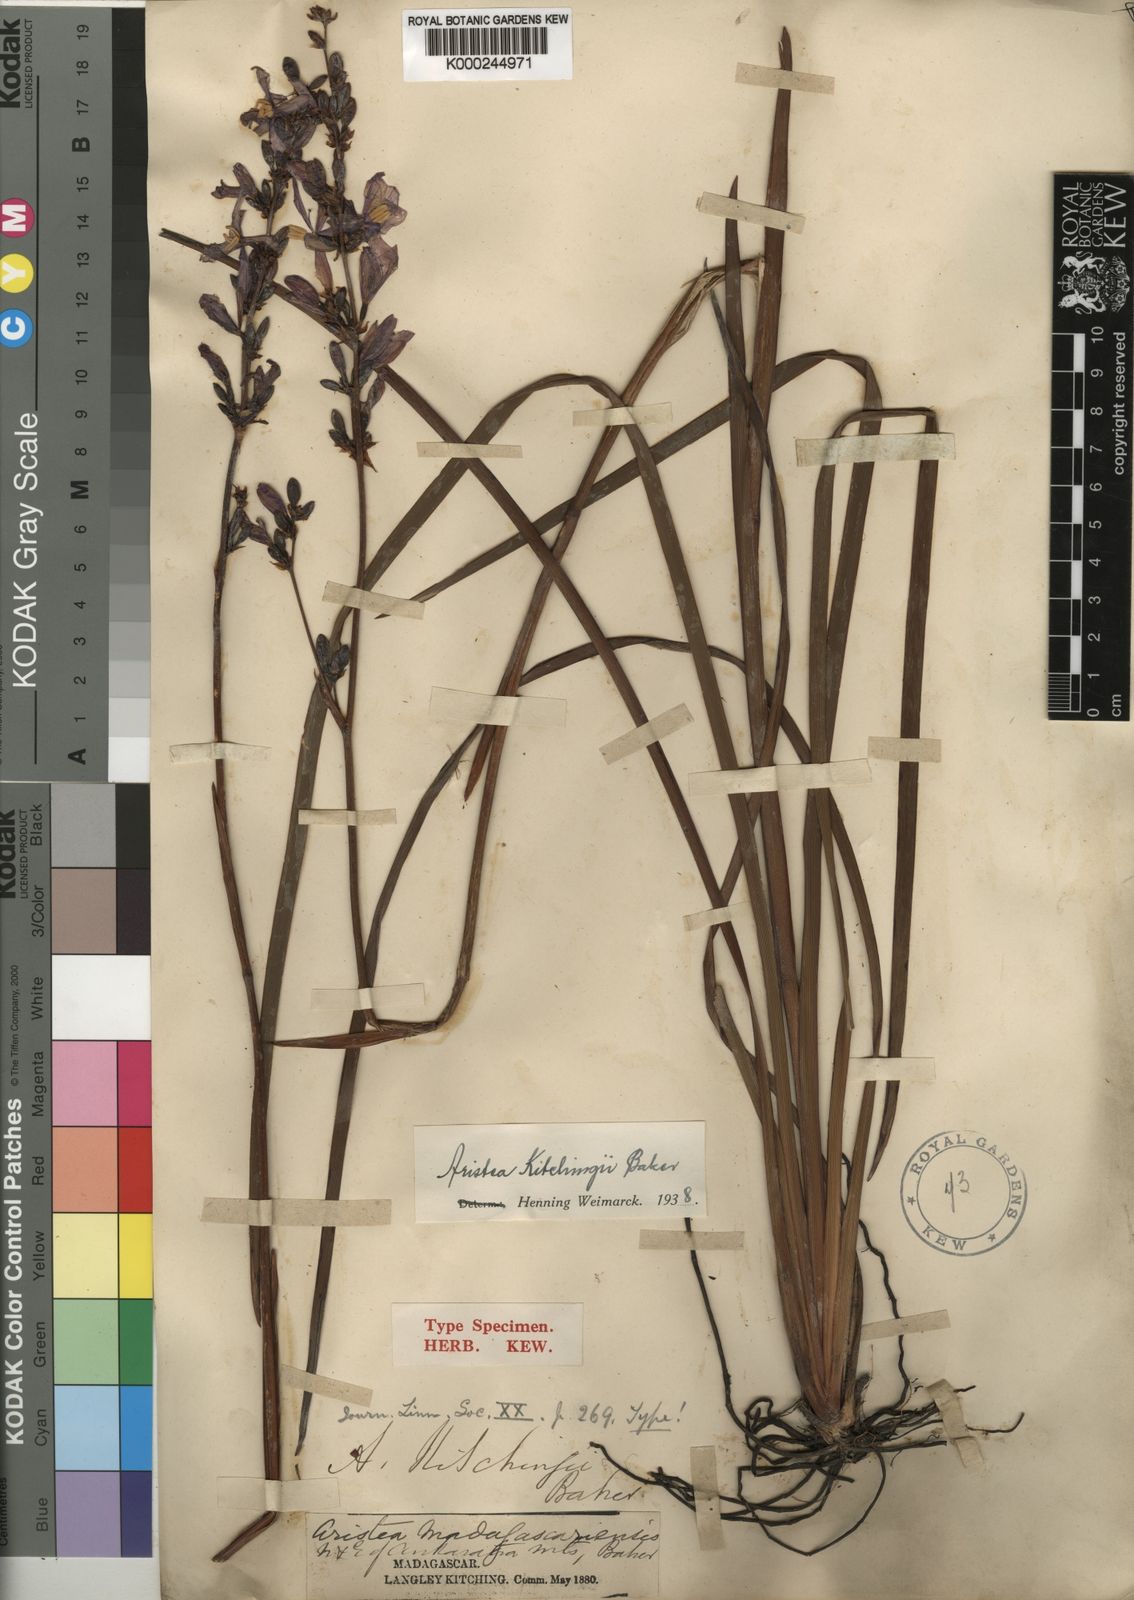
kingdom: Plantae
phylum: Tracheophyta
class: Liliopsida
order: Asparagales
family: Iridaceae
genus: Aristea
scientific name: Aristea kitchingii
